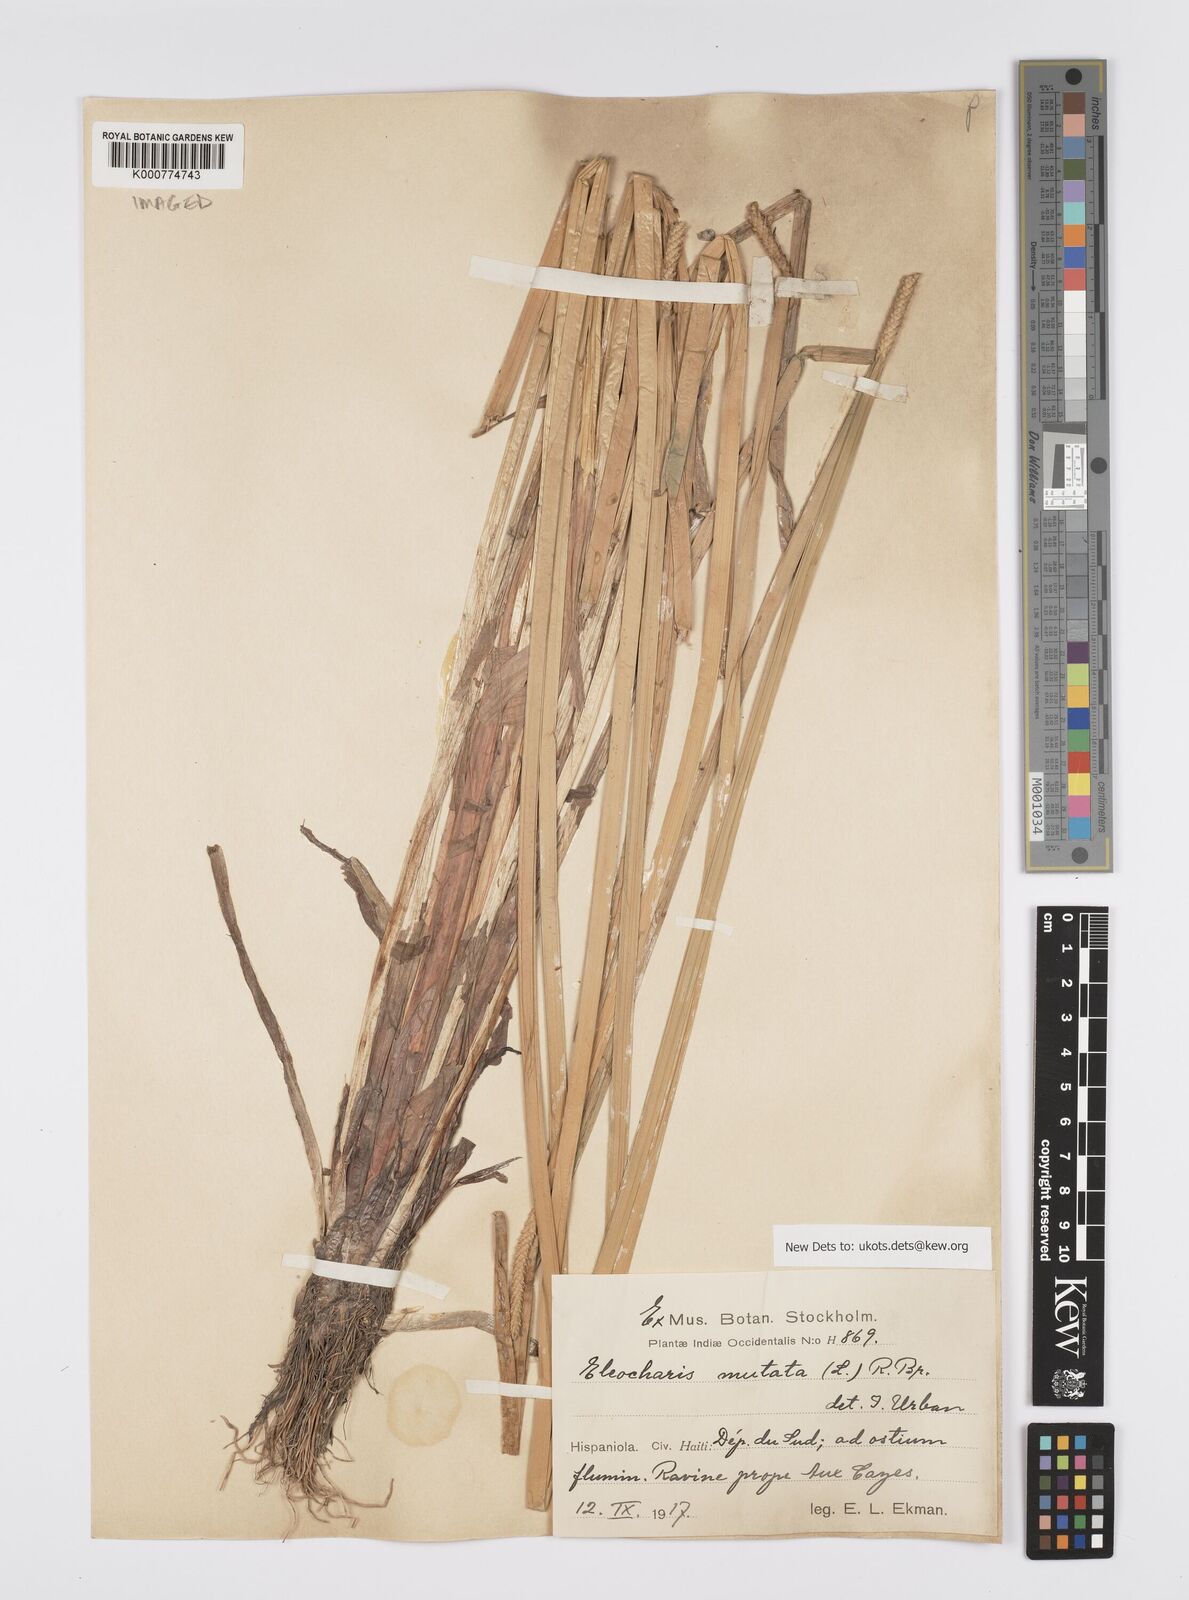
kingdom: Plantae
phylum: Tracheophyta
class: Liliopsida
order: Poales
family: Cyperaceae
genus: Eleocharis
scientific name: Eleocharis mutata
